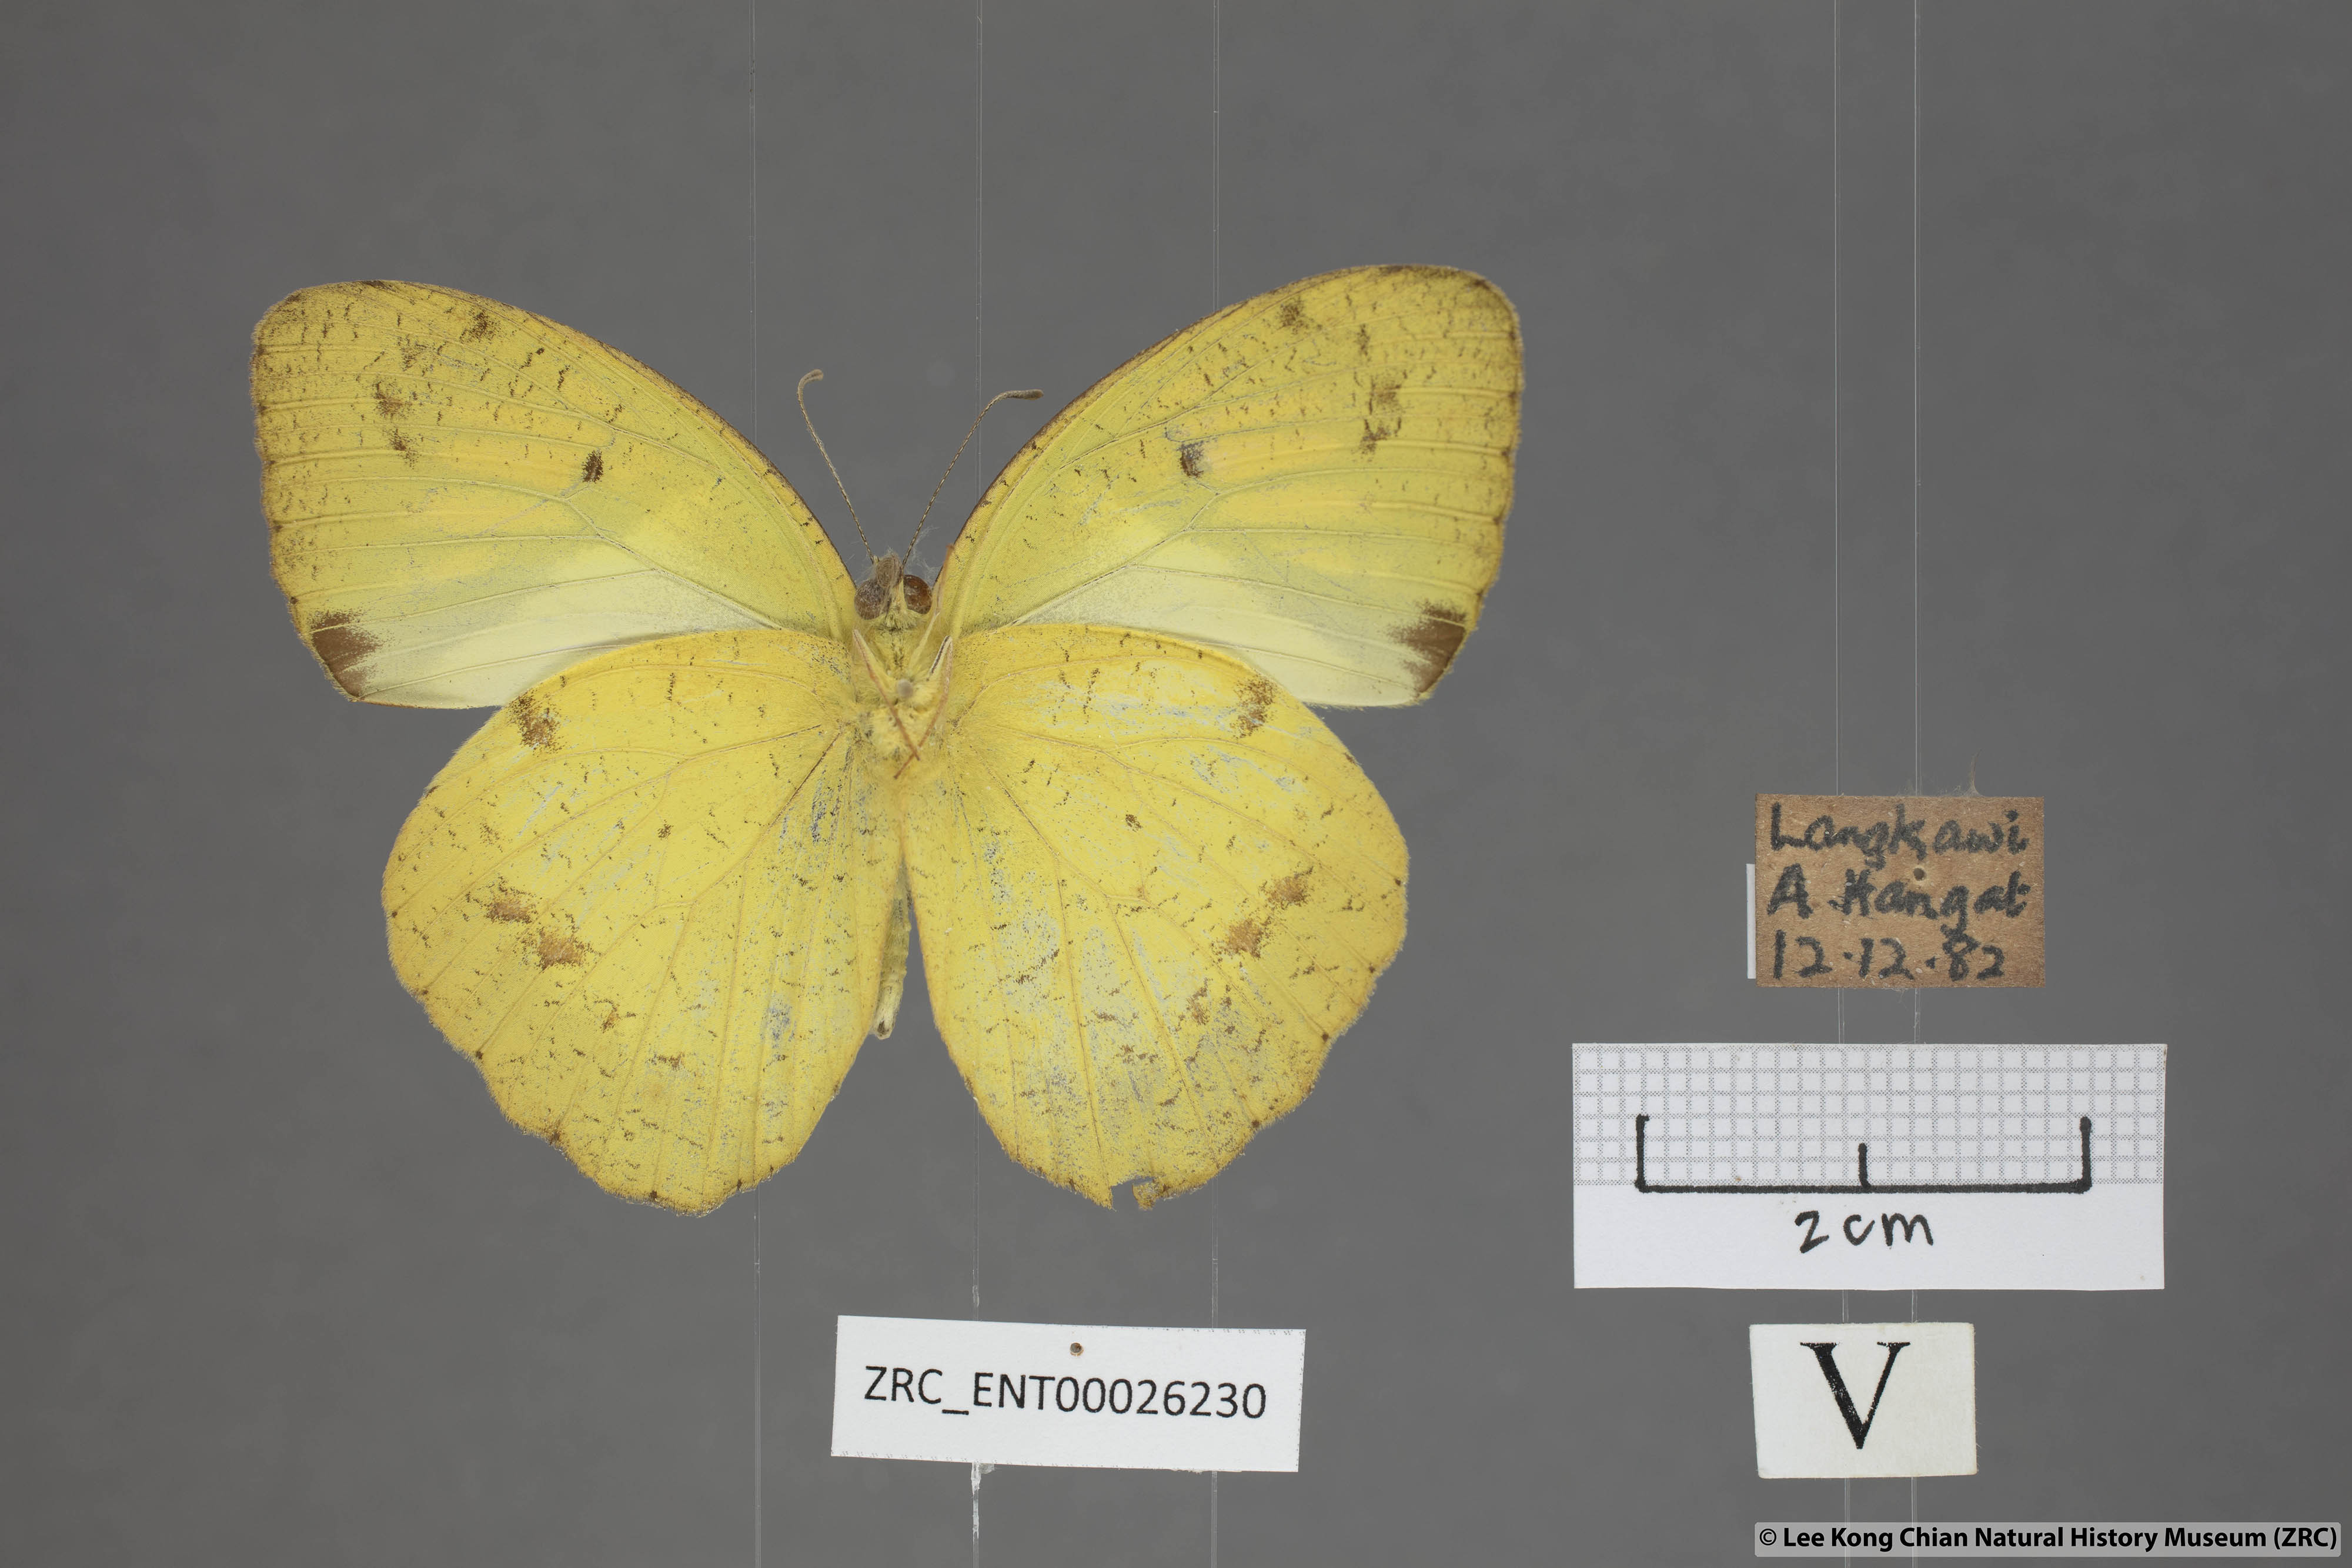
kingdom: Animalia
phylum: Arthropoda
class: Insecta
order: Lepidoptera
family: Pieridae
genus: Ixias
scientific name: Ixias pyrene
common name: Yellow orange tip
